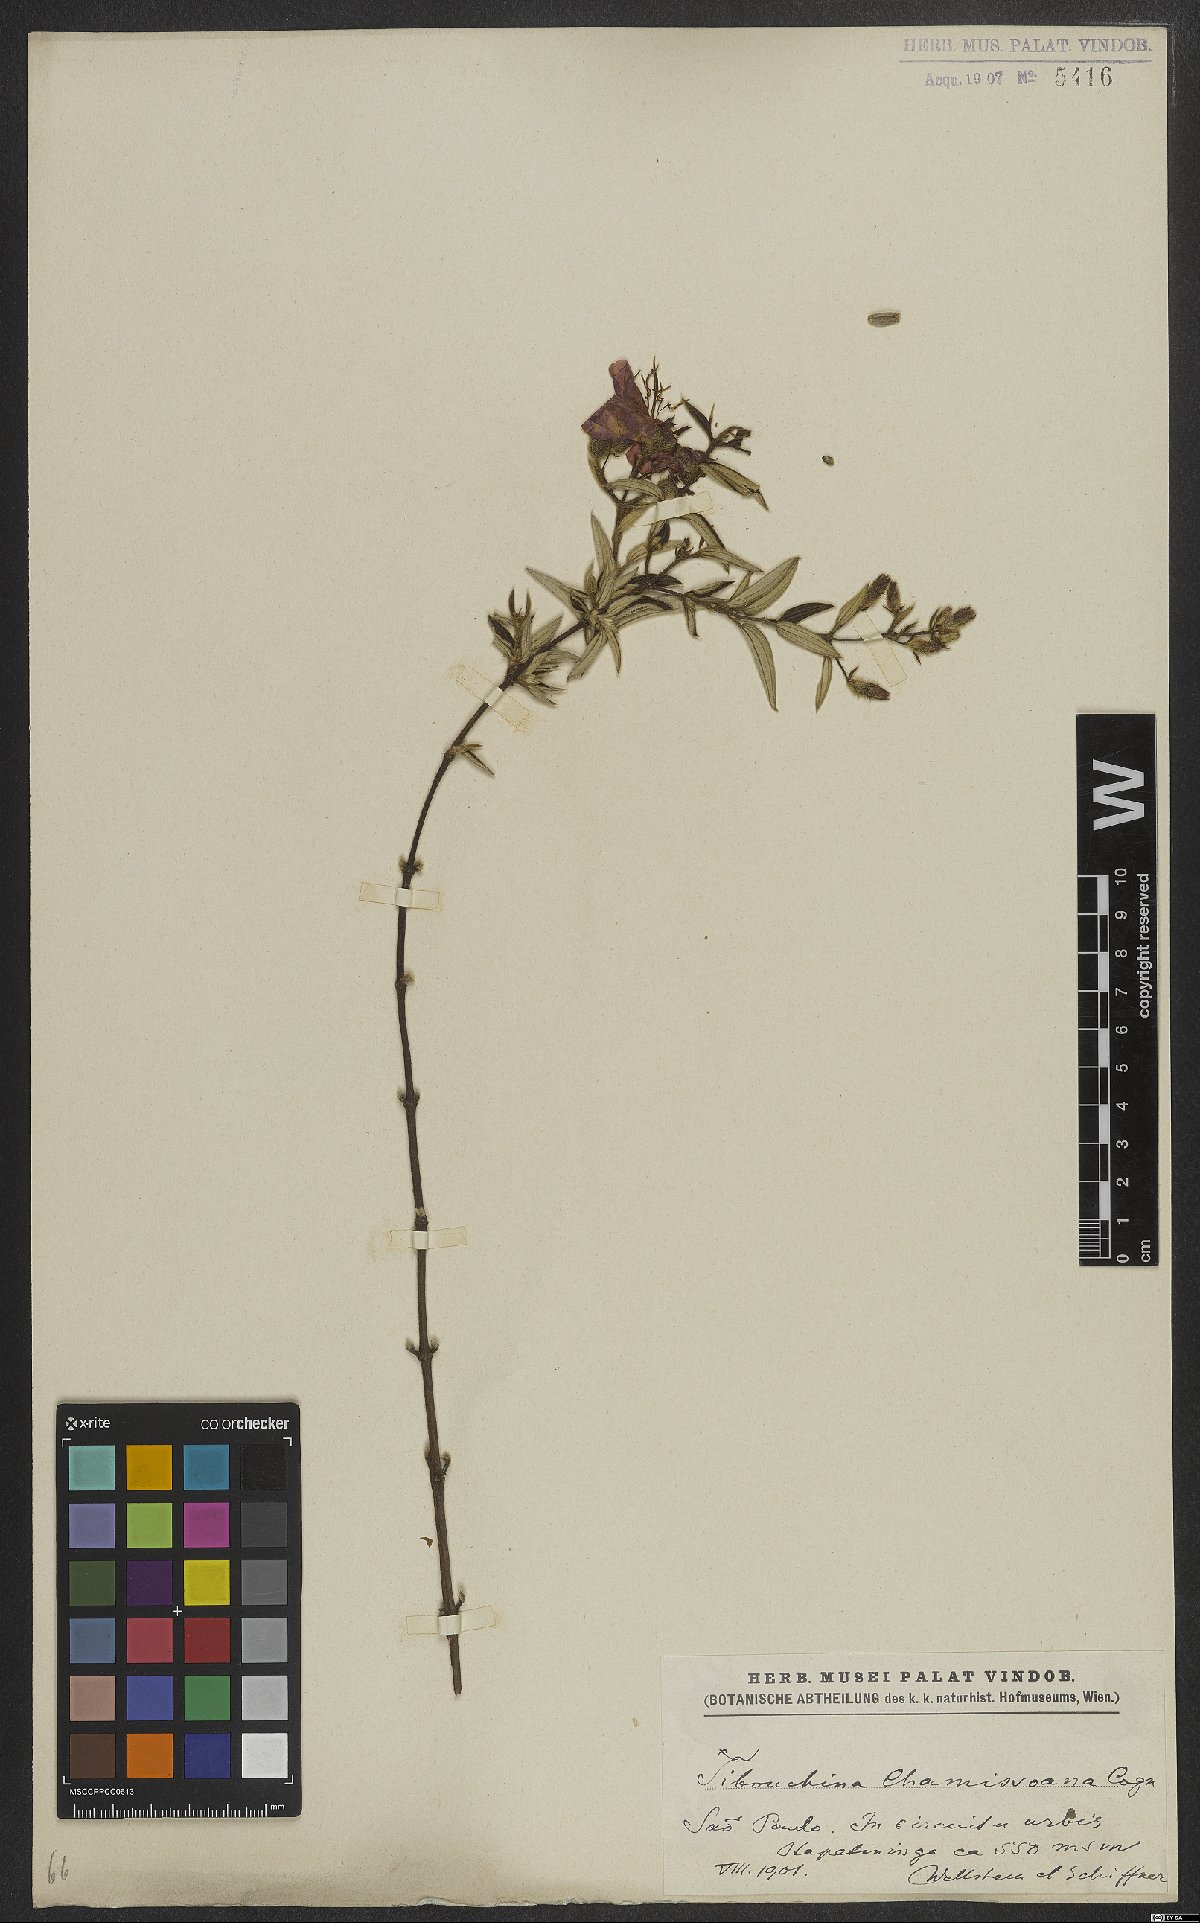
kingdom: Plantae
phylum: Tracheophyta
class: Magnoliopsida
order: Myrtales
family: Melastomataceae
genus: Pleroma
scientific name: Pleroma molle
